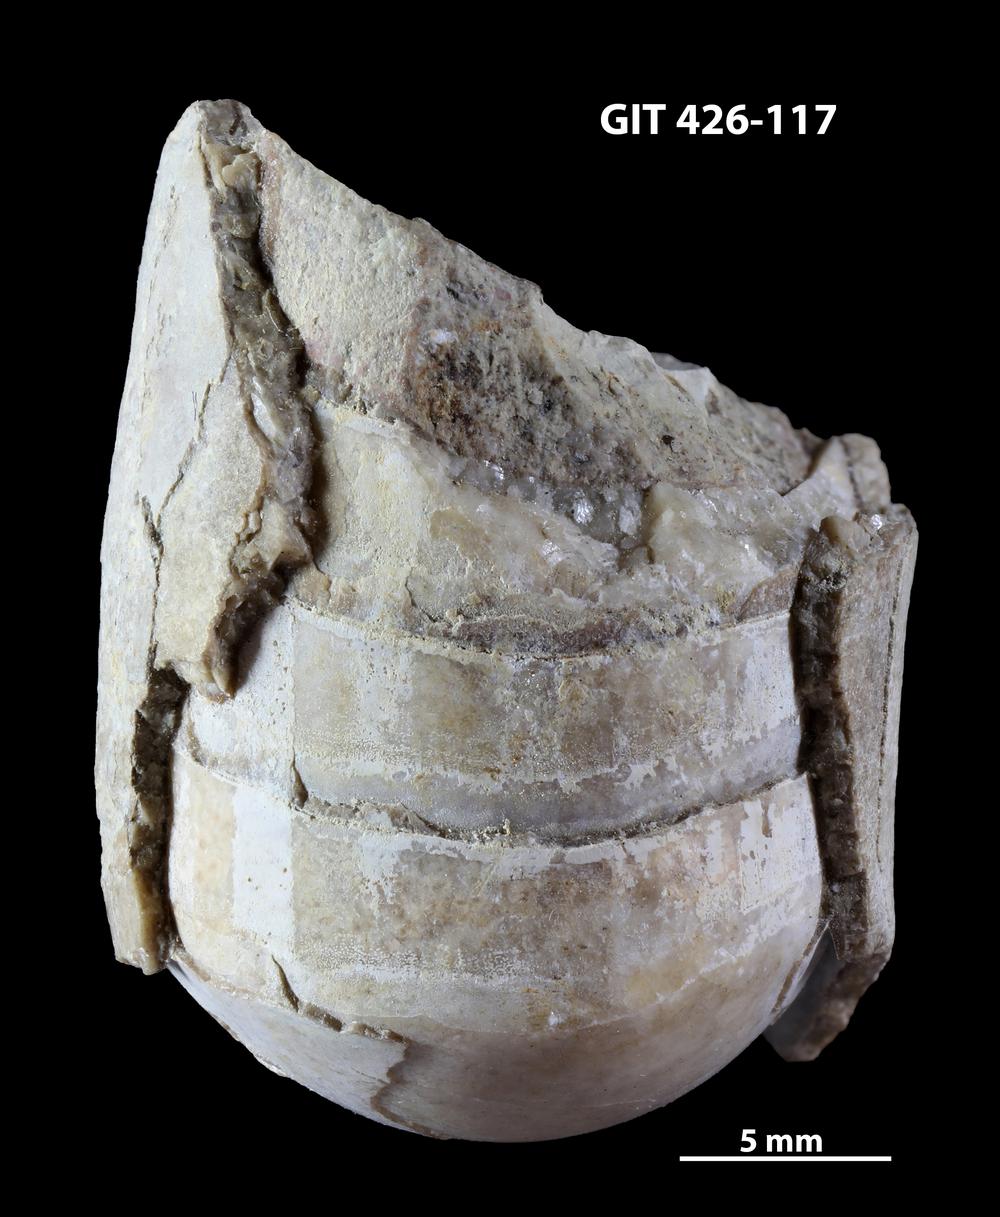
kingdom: Animalia
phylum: Mollusca
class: Cephalopoda
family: Estonioceratidae
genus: Tragoceras
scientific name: Tragoceras
